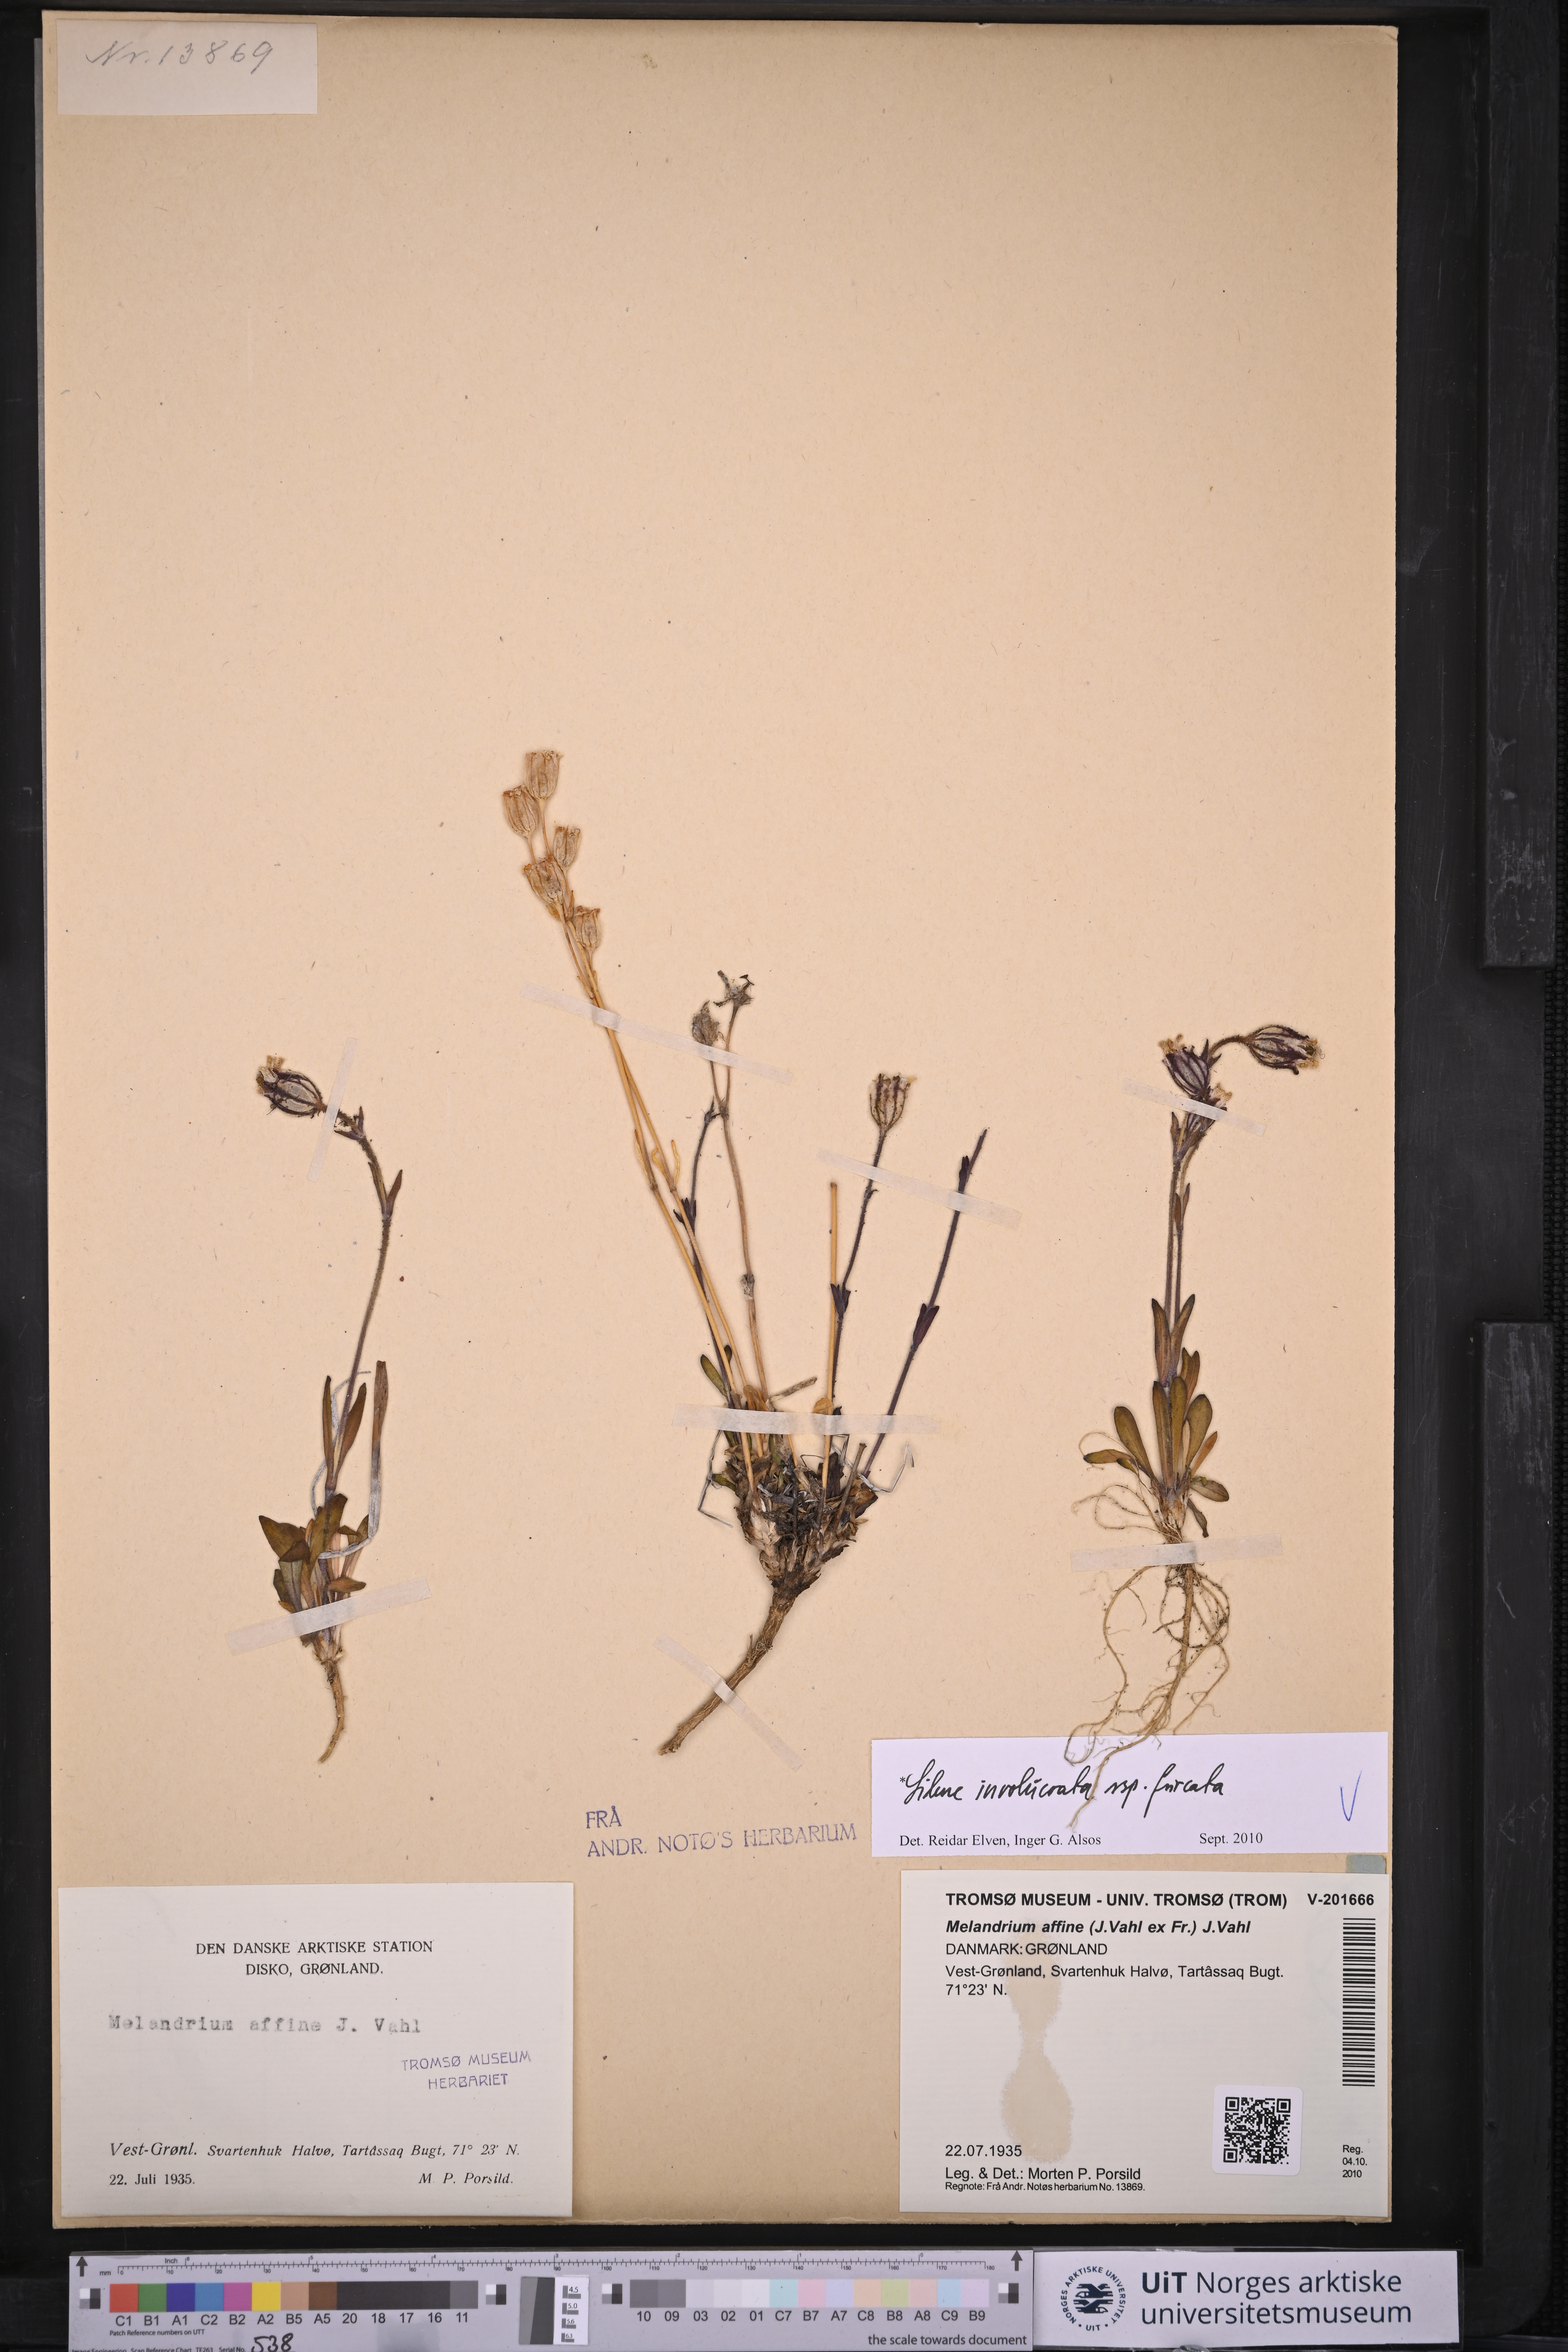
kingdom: Plantae
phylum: Tracheophyta
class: Magnoliopsida
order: Caryophyllales
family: Caryophyllaceae
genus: Silene
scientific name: Silene involucrata
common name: Greater arctic campion
